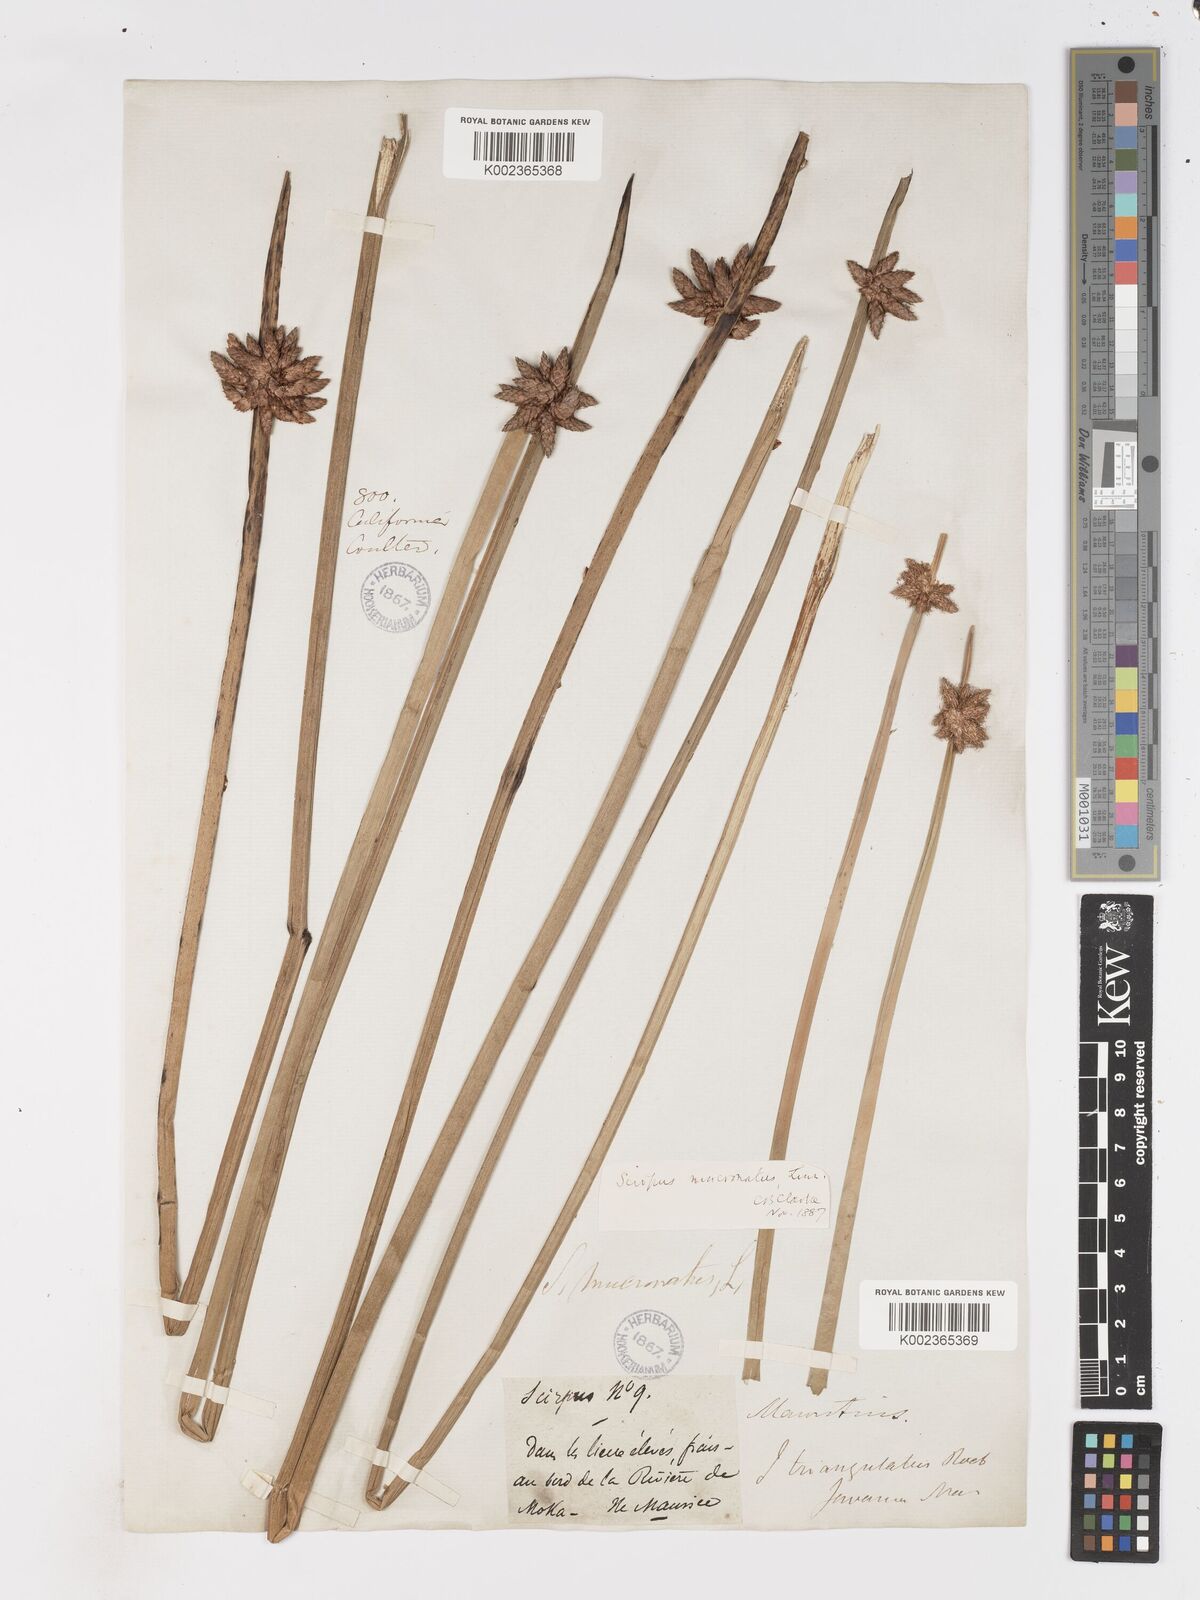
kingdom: Plantae
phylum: Tracheophyta
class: Liliopsida
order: Poales
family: Cyperaceae
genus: Schoenoplectiella
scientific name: Schoenoplectiella mucronata
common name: Bog bulrush
